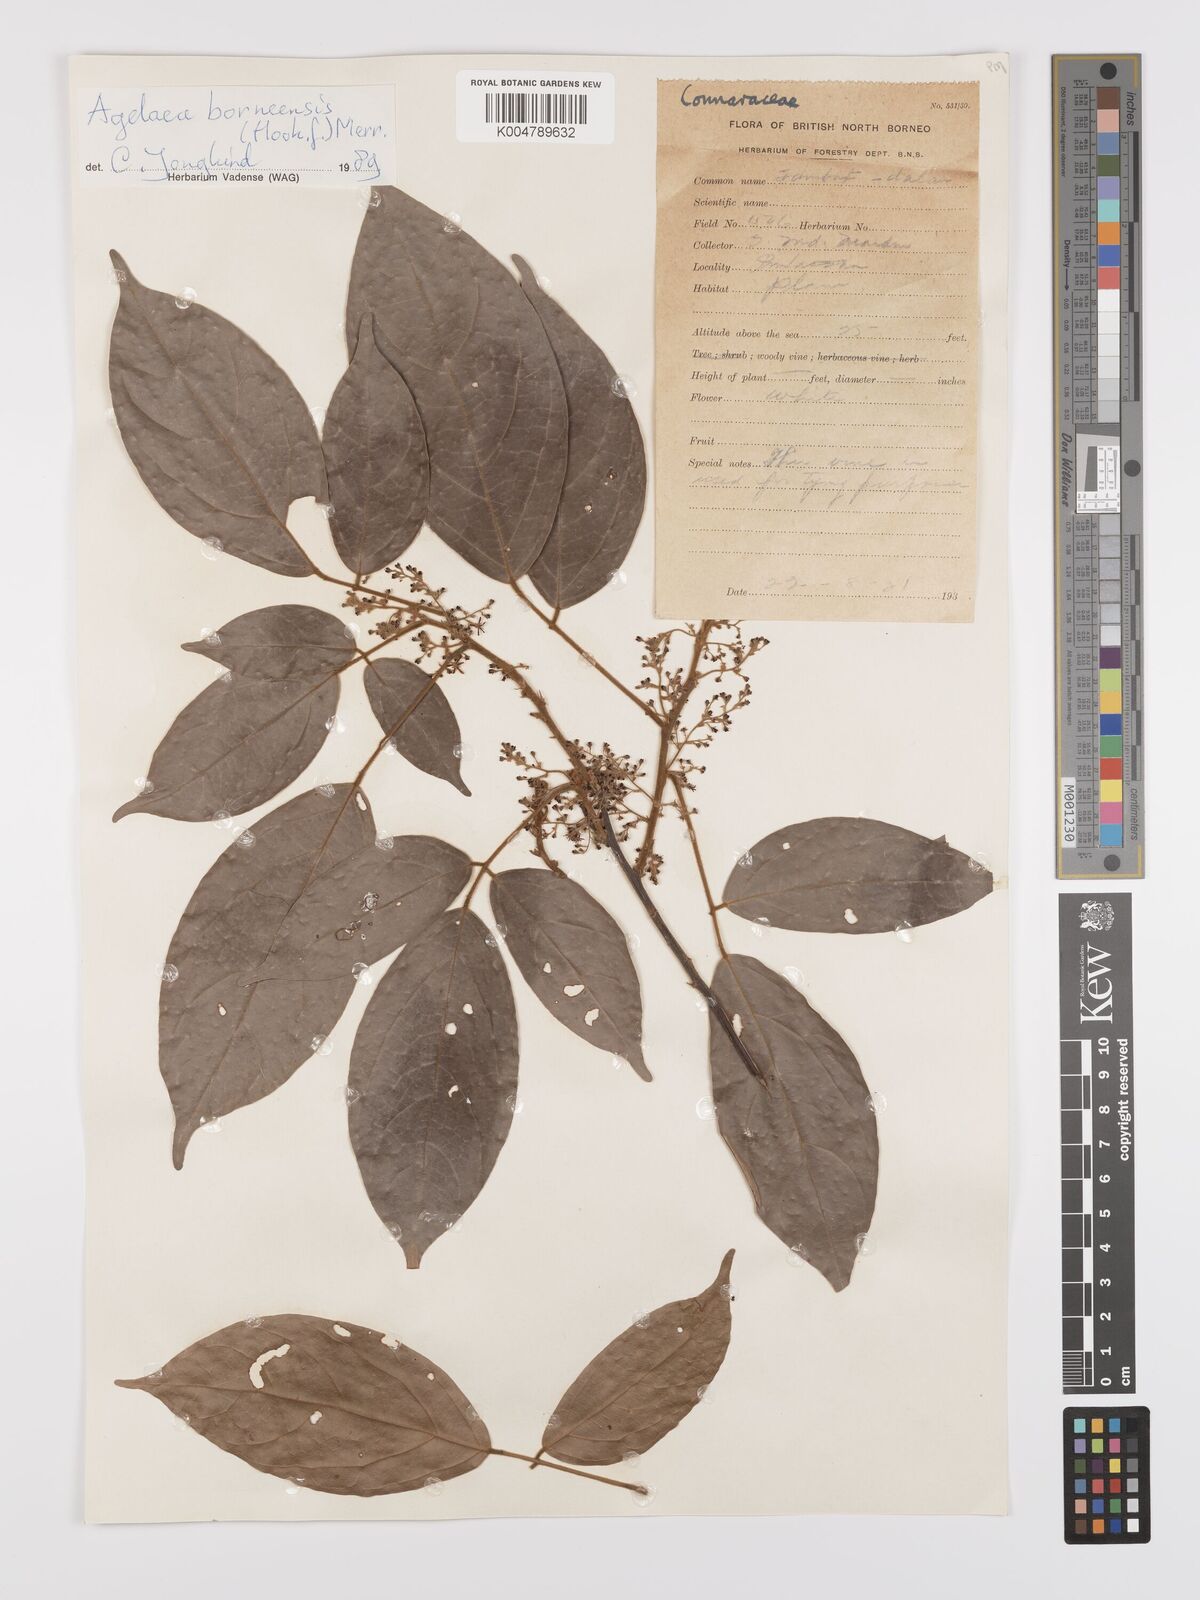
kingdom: Plantae
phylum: Tracheophyta
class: Magnoliopsida
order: Oxalidales
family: Connaraceae
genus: Agelaea
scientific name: Agelaea borneensis
